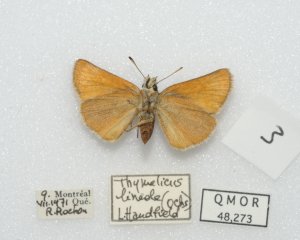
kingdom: Animalia
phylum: Arthropoda
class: Insecta
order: Lepidoptera
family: Hesperiidae
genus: Thymelicus
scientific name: Thymelicus lineola
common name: European Skipper
